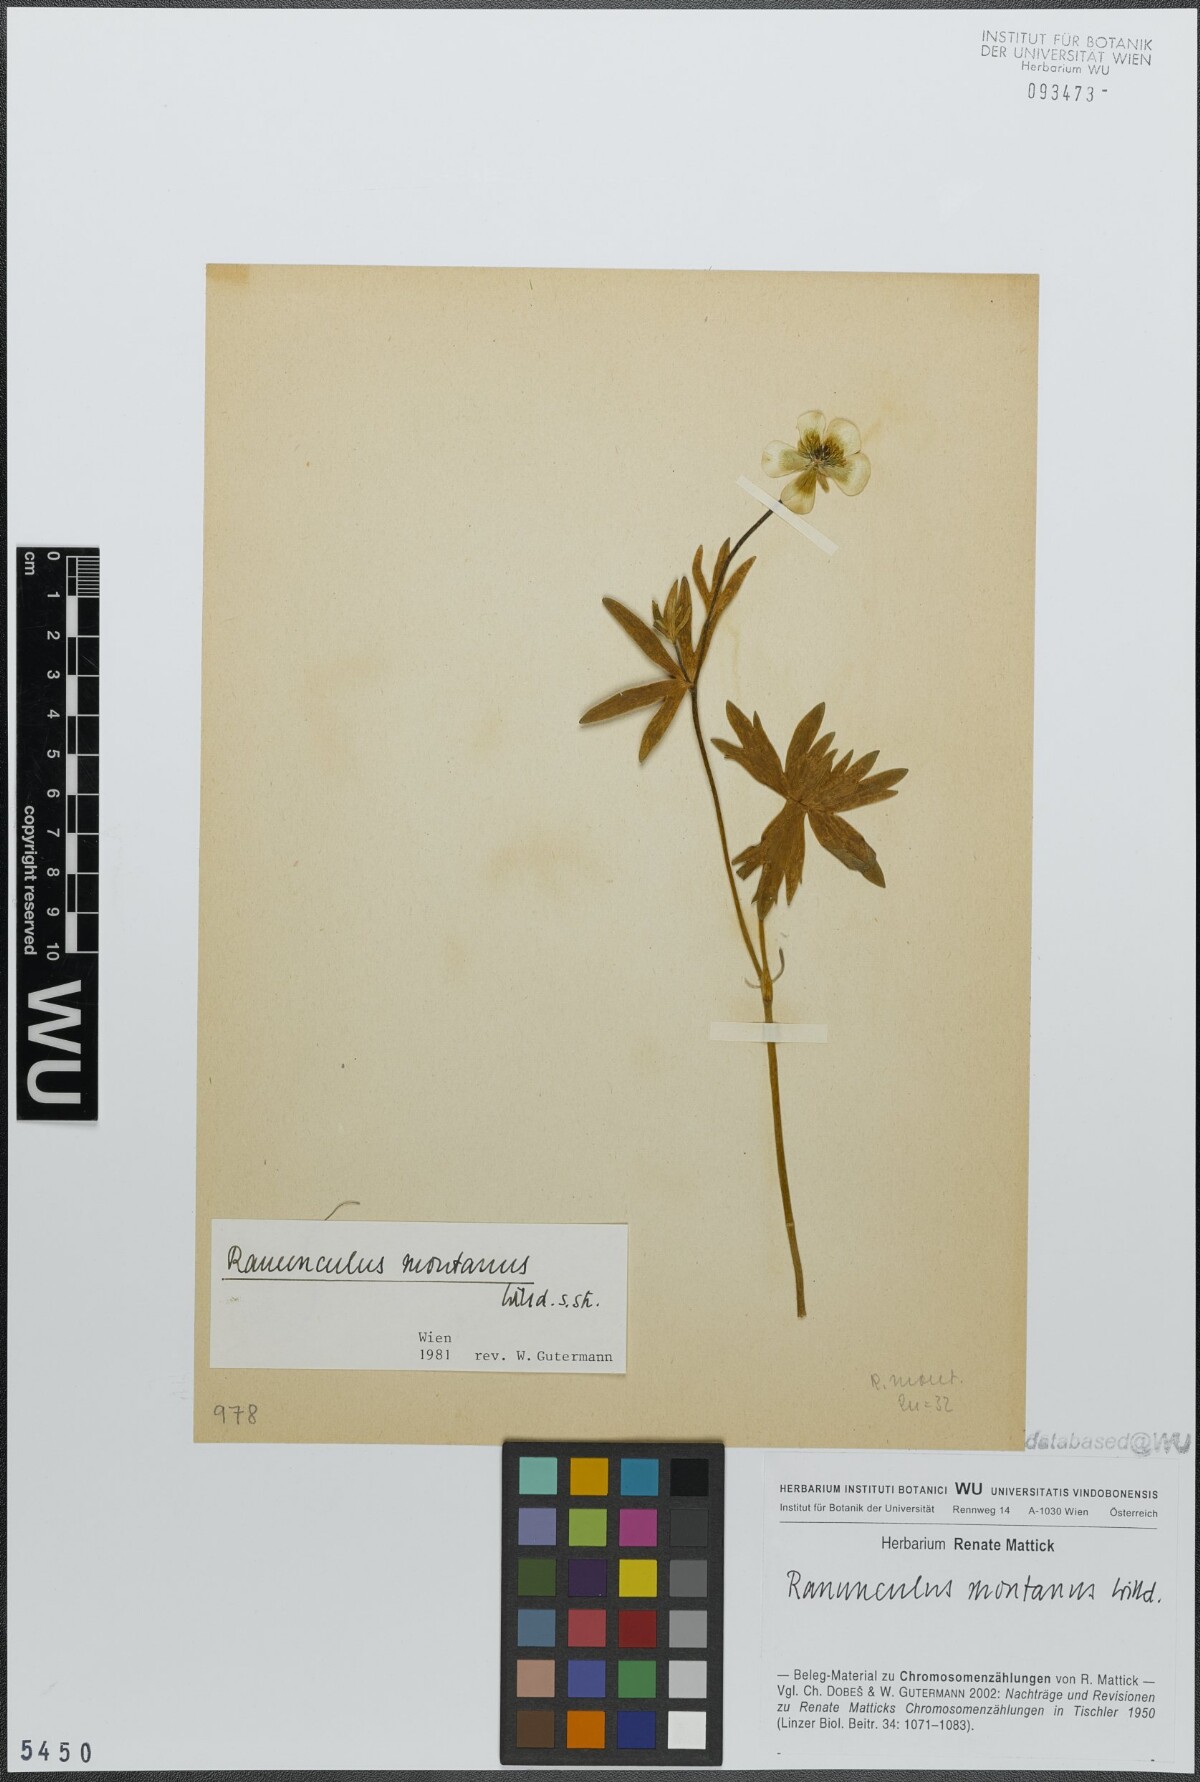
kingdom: Plantae
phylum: Tracheophyta
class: Magnoliopsida
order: Ranunculales
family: Ranunculaceae
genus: Ranunculus
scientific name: Ranunculus montanus
